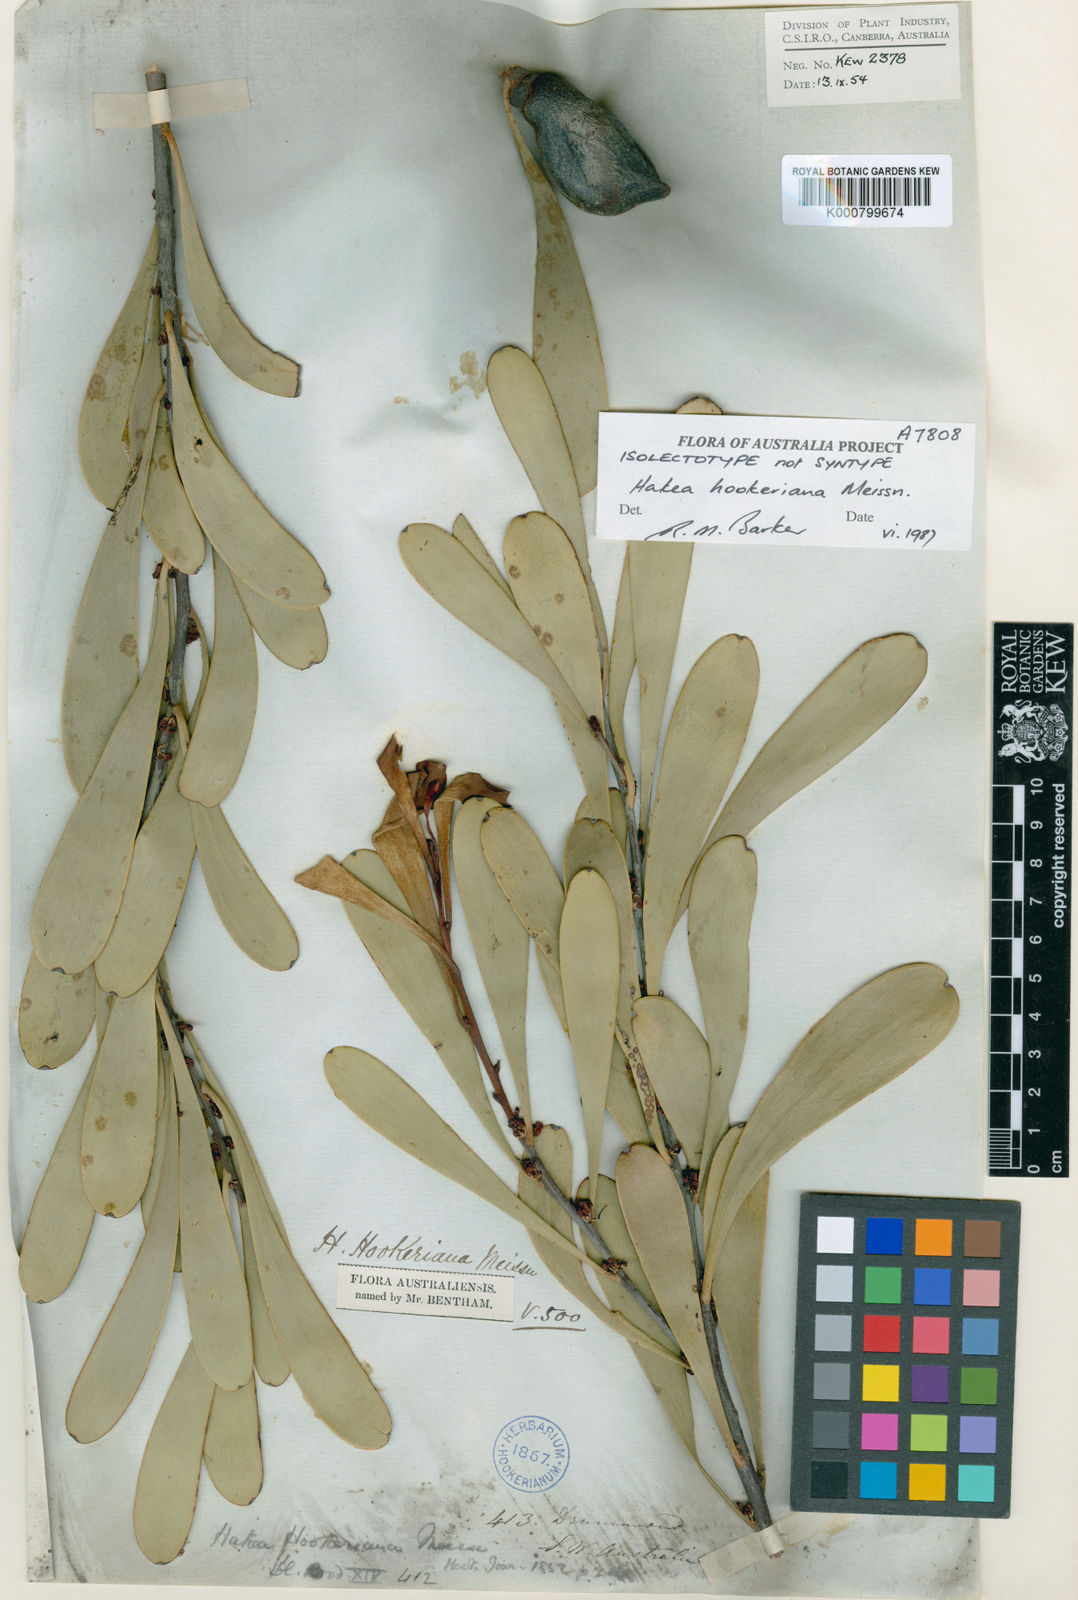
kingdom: Plantae
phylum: Tracheophyta
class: Magnoliopsida
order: Proteales
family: Proteaceae
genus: Hakea
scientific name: Hakea hookeriana
